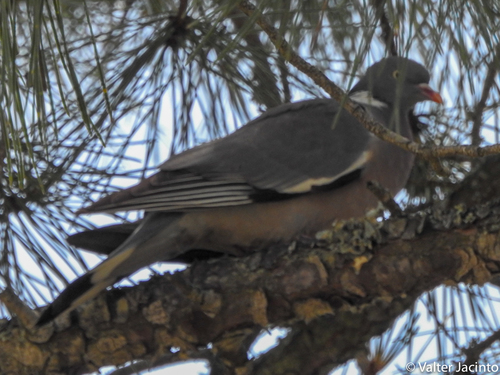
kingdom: Animalia
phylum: Chordata
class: Aves
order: Columbiformes
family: Columbidae
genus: Columba
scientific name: Columba palumbus
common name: Common wood pigeon
